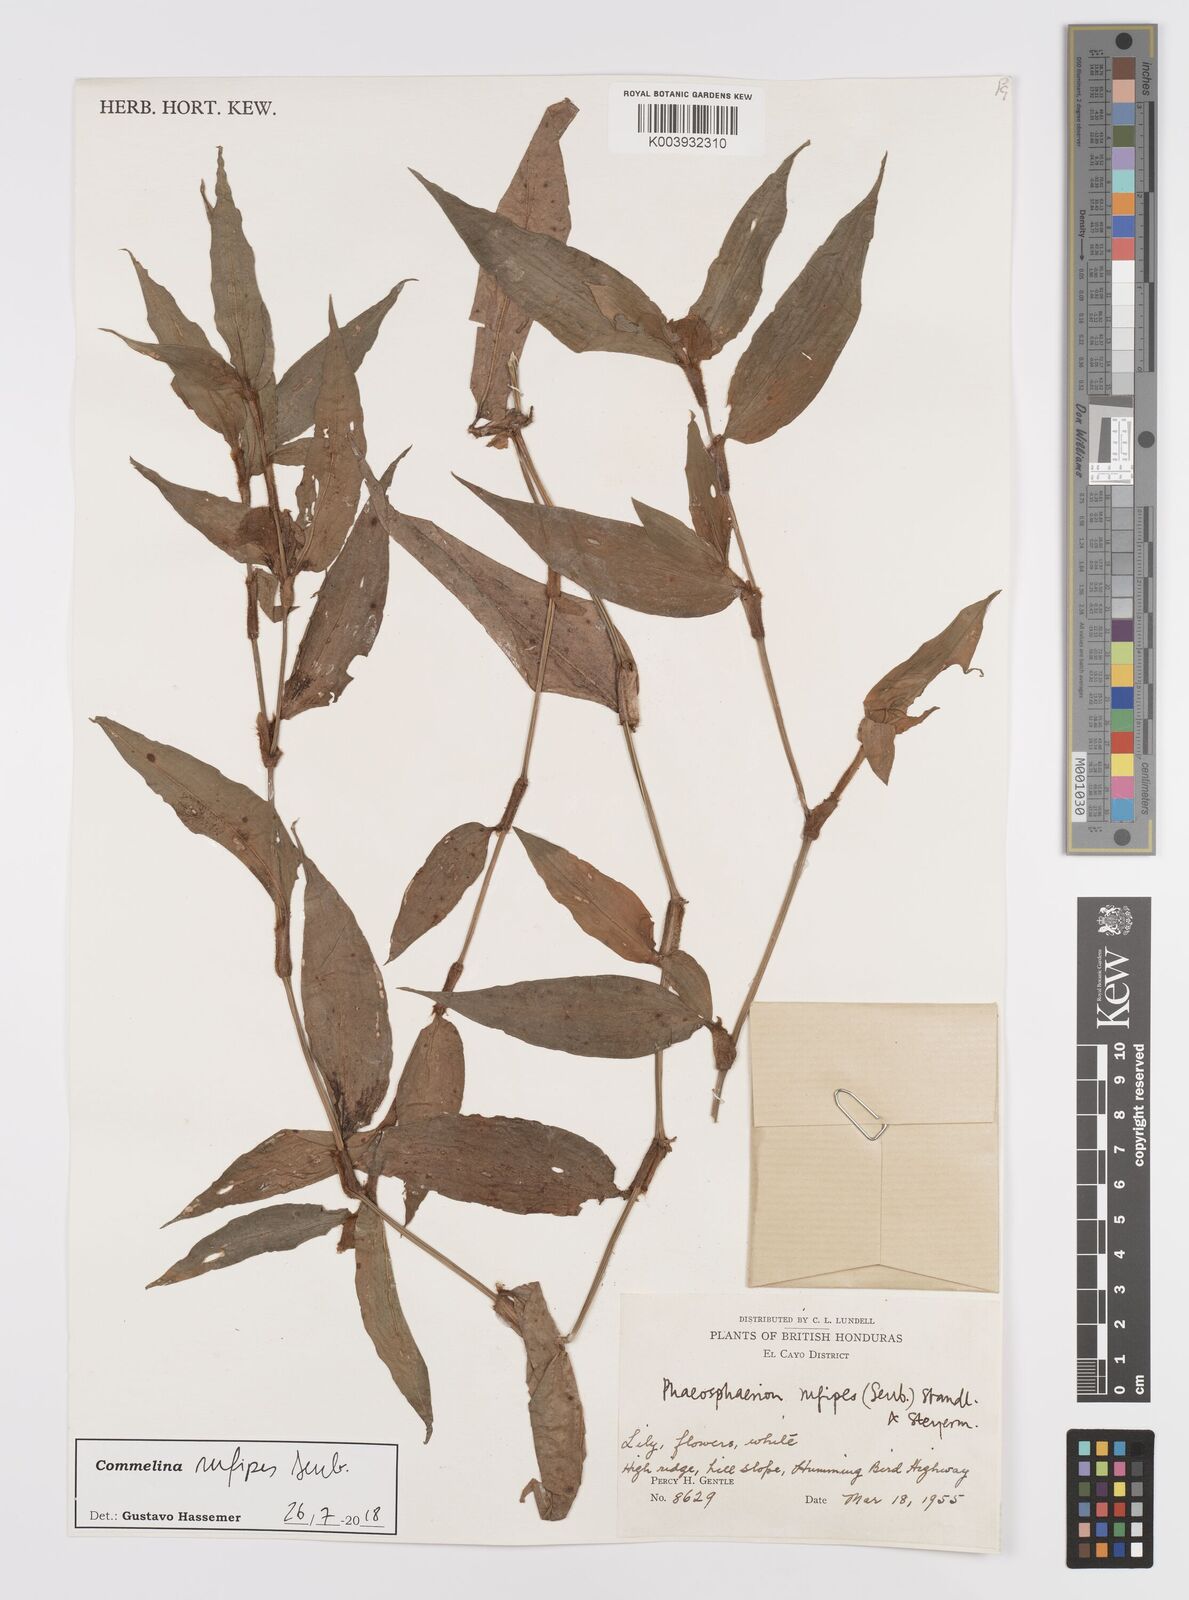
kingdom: Plantae
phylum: Tracheophyta
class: Liliopsida
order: Commelinales
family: Commelinaceae
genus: Commelina
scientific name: Commelina rufipes
